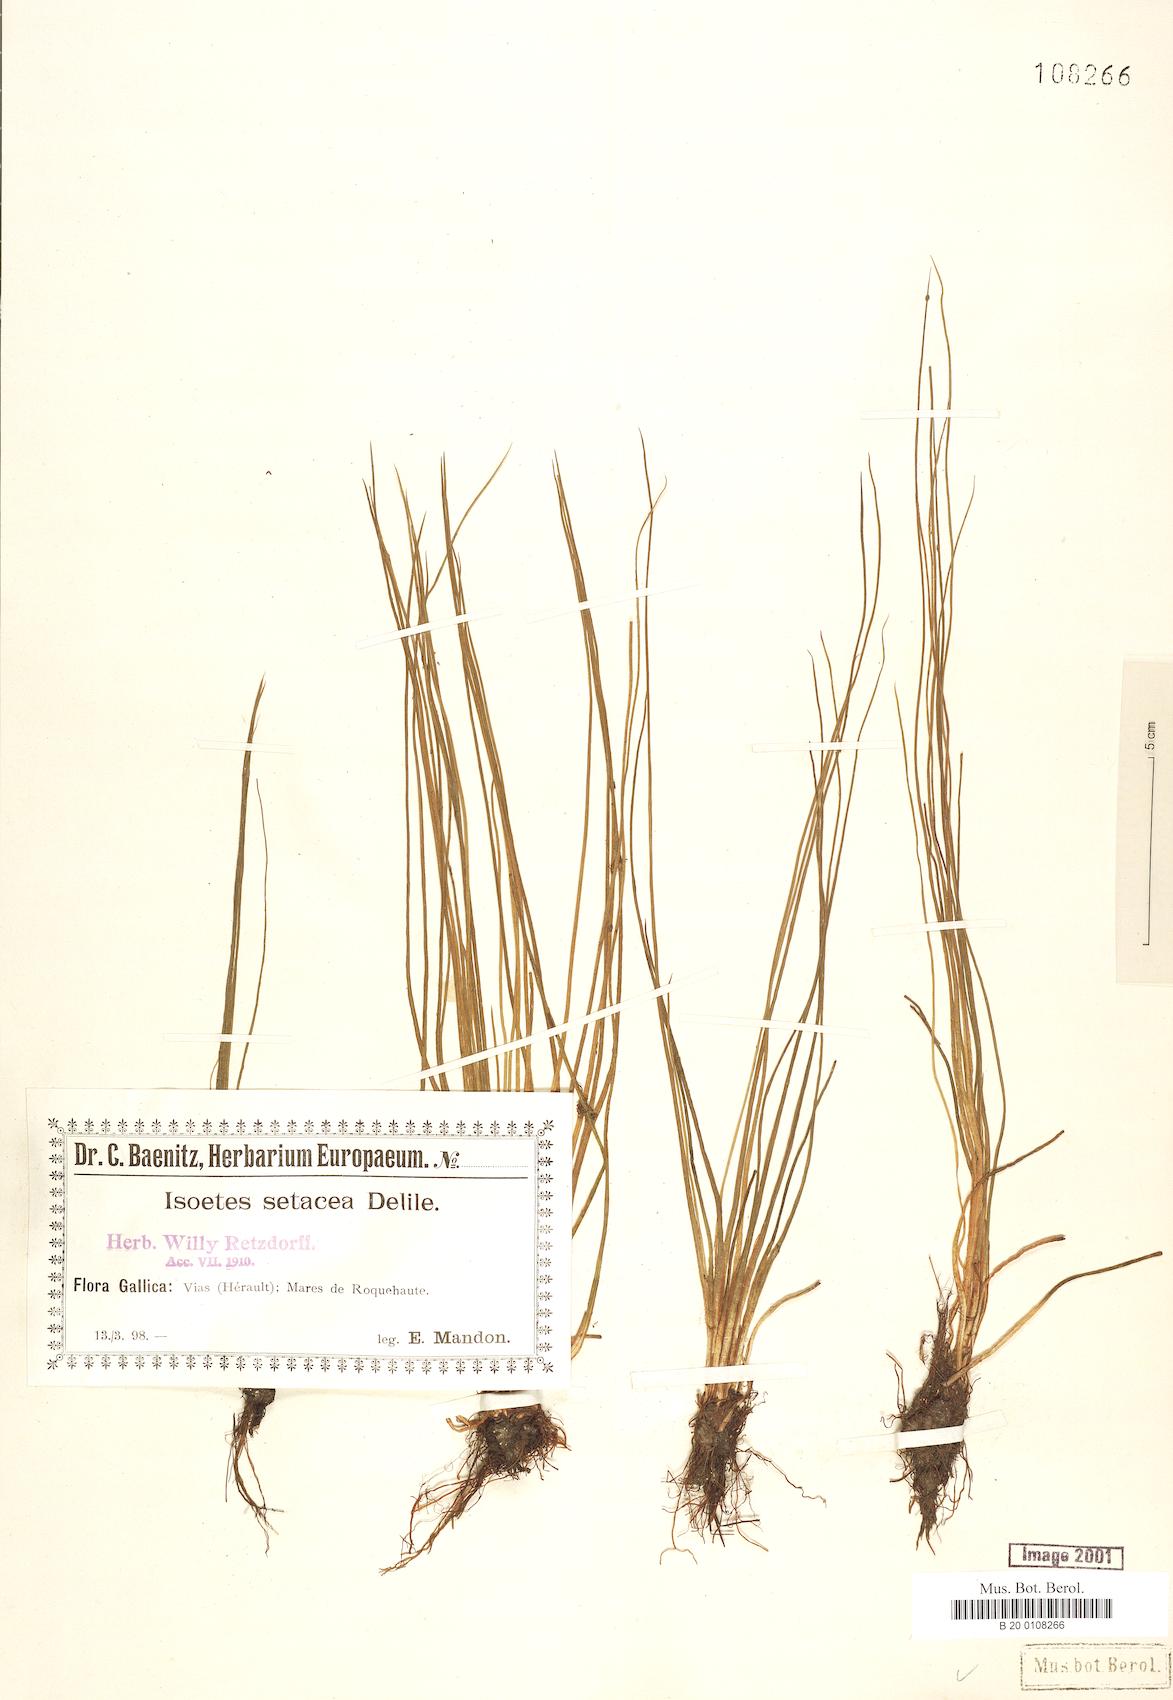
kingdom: Plantae
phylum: Tracheophyta
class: Lycopodiopsida
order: Isoetales
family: Isoetaceae
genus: Isoetes
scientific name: Isoetes lacustris
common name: Common quillwort
